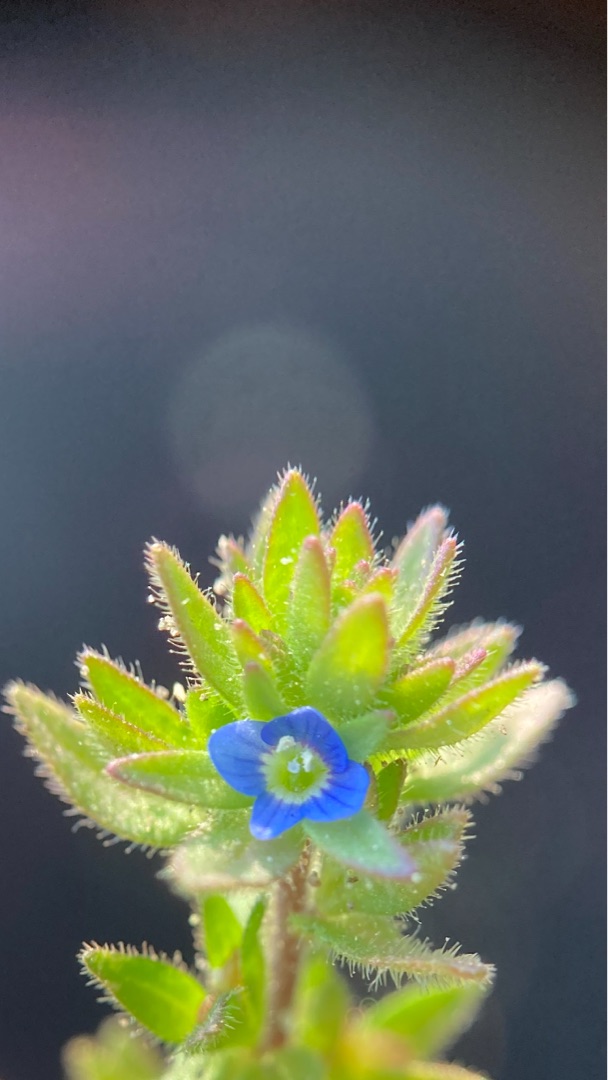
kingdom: Plantae
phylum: Tracheophyta
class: Magnoliopsida
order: Lamiales
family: Plantaginaceae
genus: Veronica
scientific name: Veronica arvensis
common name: Mark-ærenpris
